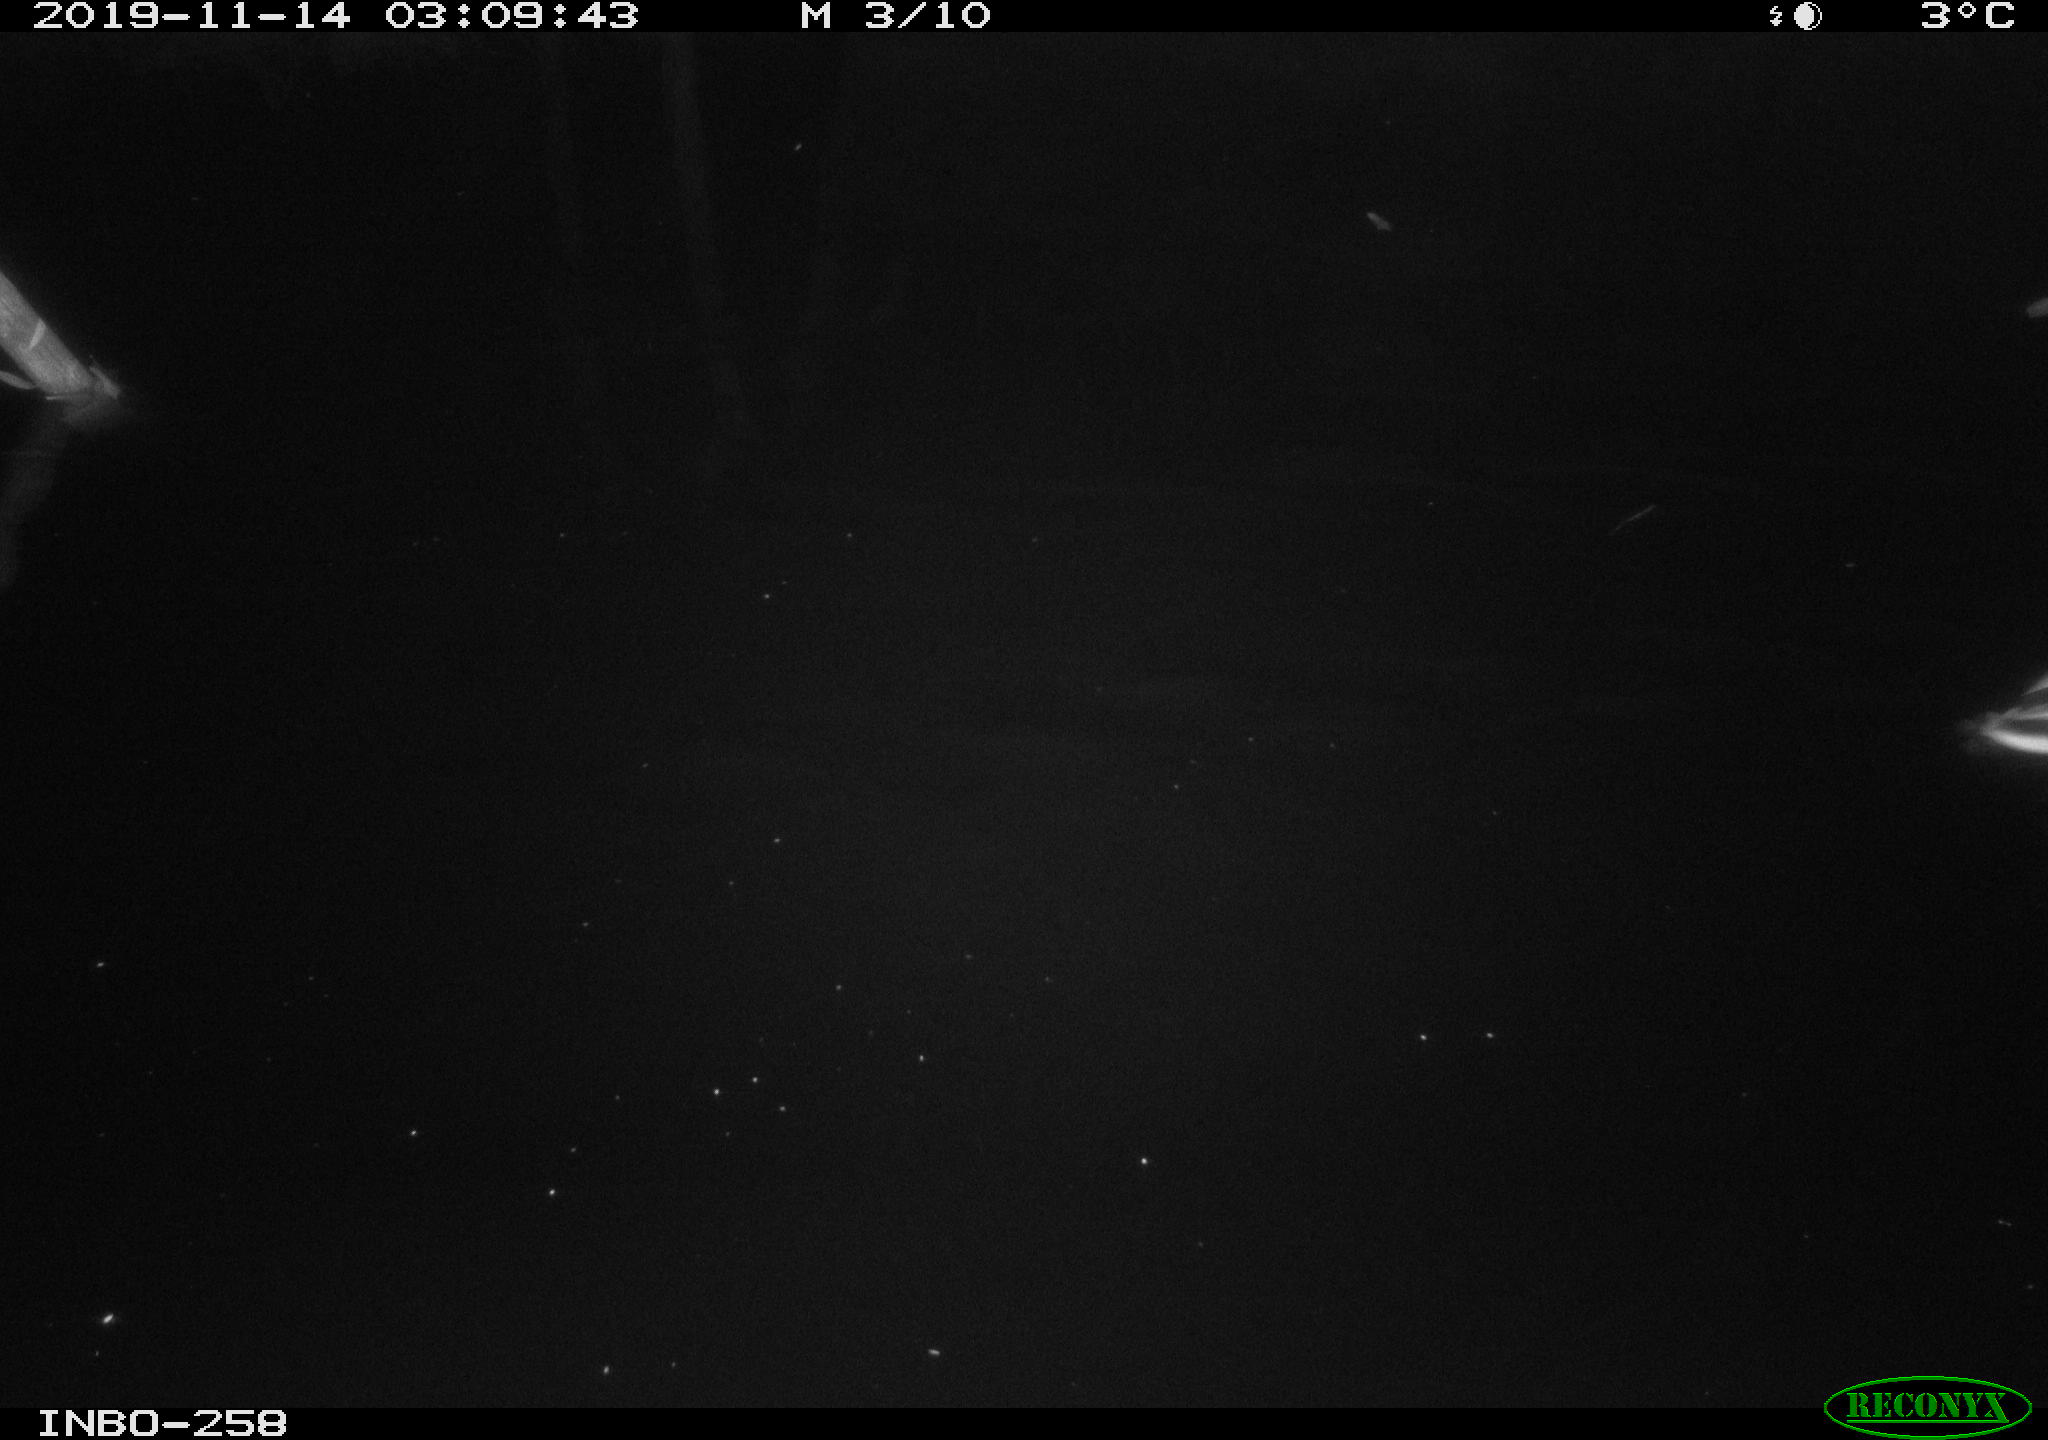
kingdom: Animalia
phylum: Chordata
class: Aves
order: Anseriformes
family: Anatidae
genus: Anas
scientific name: Anas platyrhynchos
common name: Mallard
